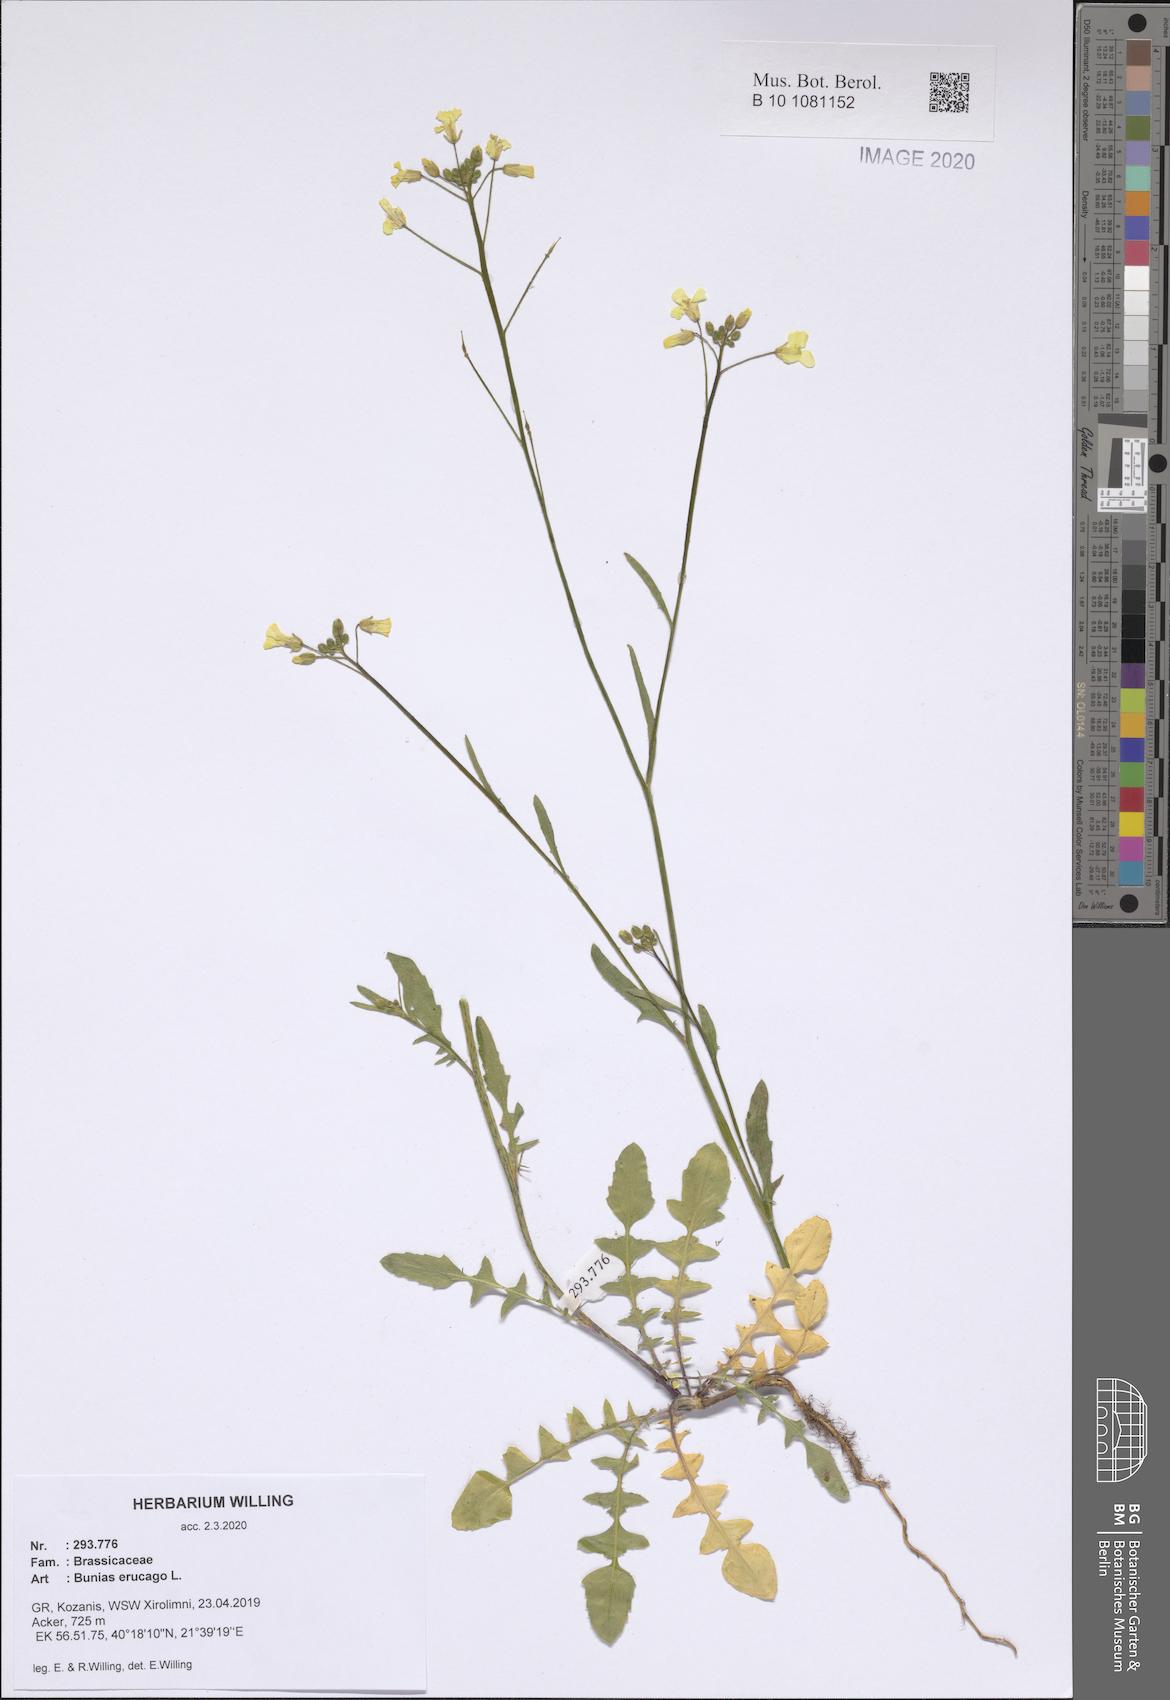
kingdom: Plantae
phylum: Tracheophyta
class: Magnoliopsida
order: Brassicales
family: Brassicaceae
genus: Bunias
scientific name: Bunias erucago
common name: Southern warty-cabbage
